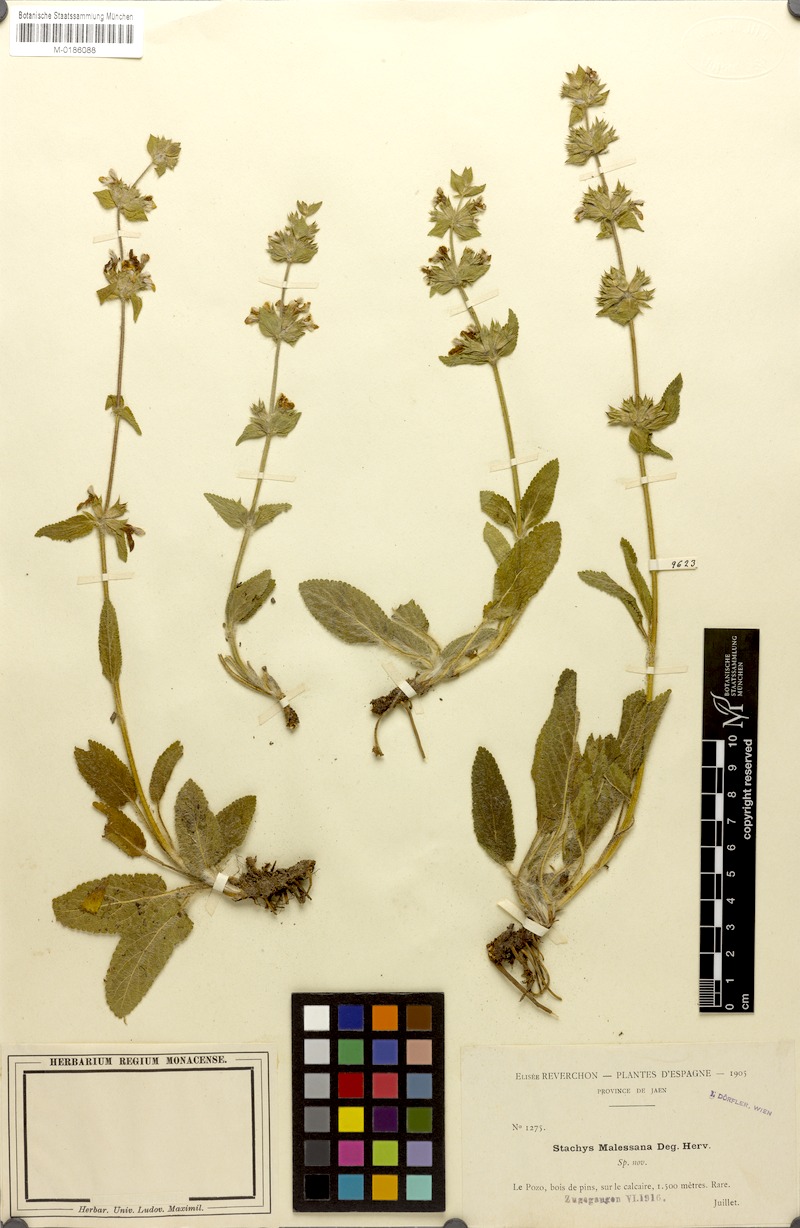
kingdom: Plantae
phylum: Tracheophyta
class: Magnoliopsida
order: Lamiales
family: Lamiaceae
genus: Stachys
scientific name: Stachys
